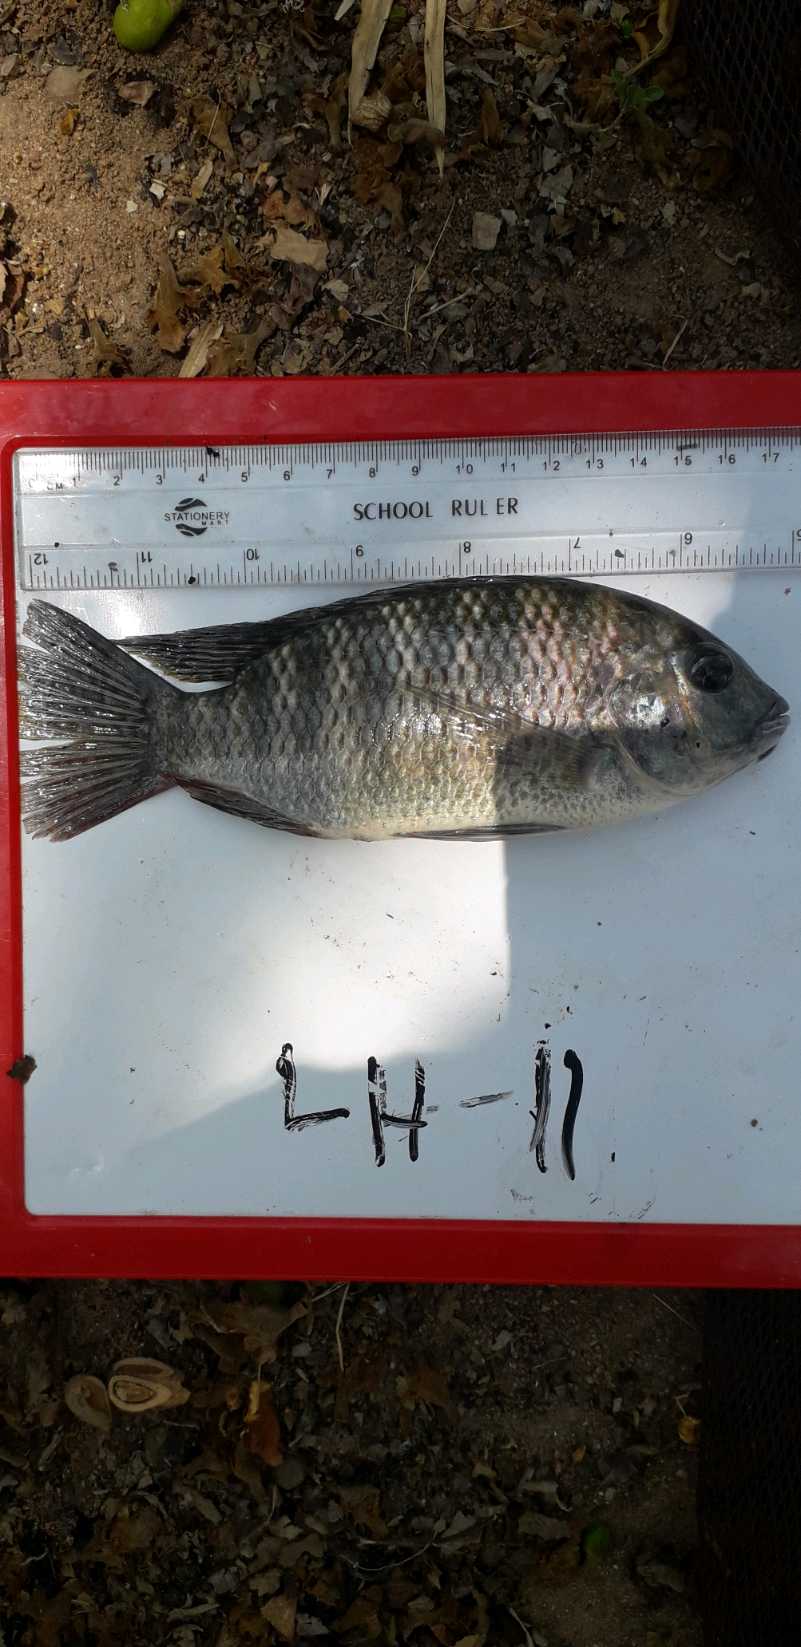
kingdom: Animalia
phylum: Chordata
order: Perciformes
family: Cichlidae
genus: Coptodon
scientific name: Coptodon rendalli
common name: Redbreast tilapia
